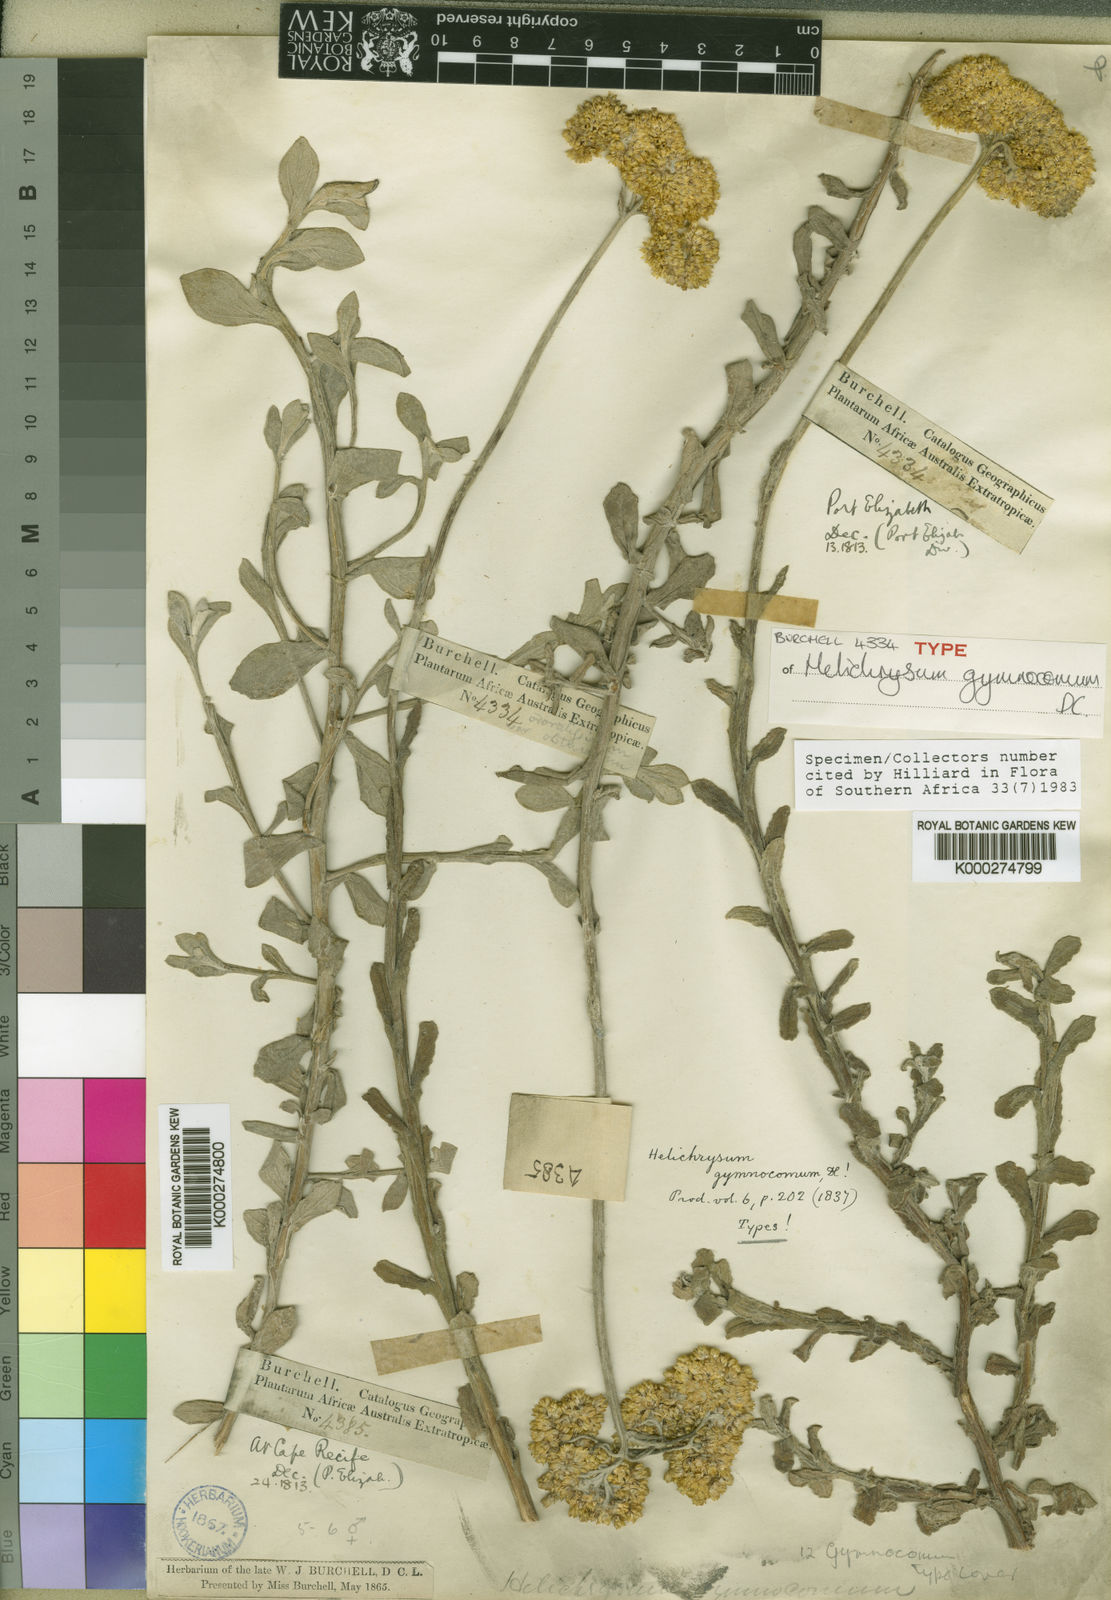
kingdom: Plantae
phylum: Tracheophyta
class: Magnoliopsida
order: Asterales
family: Asteraceae
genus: Helichrysum
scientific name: Helichrysum gymnocomum
